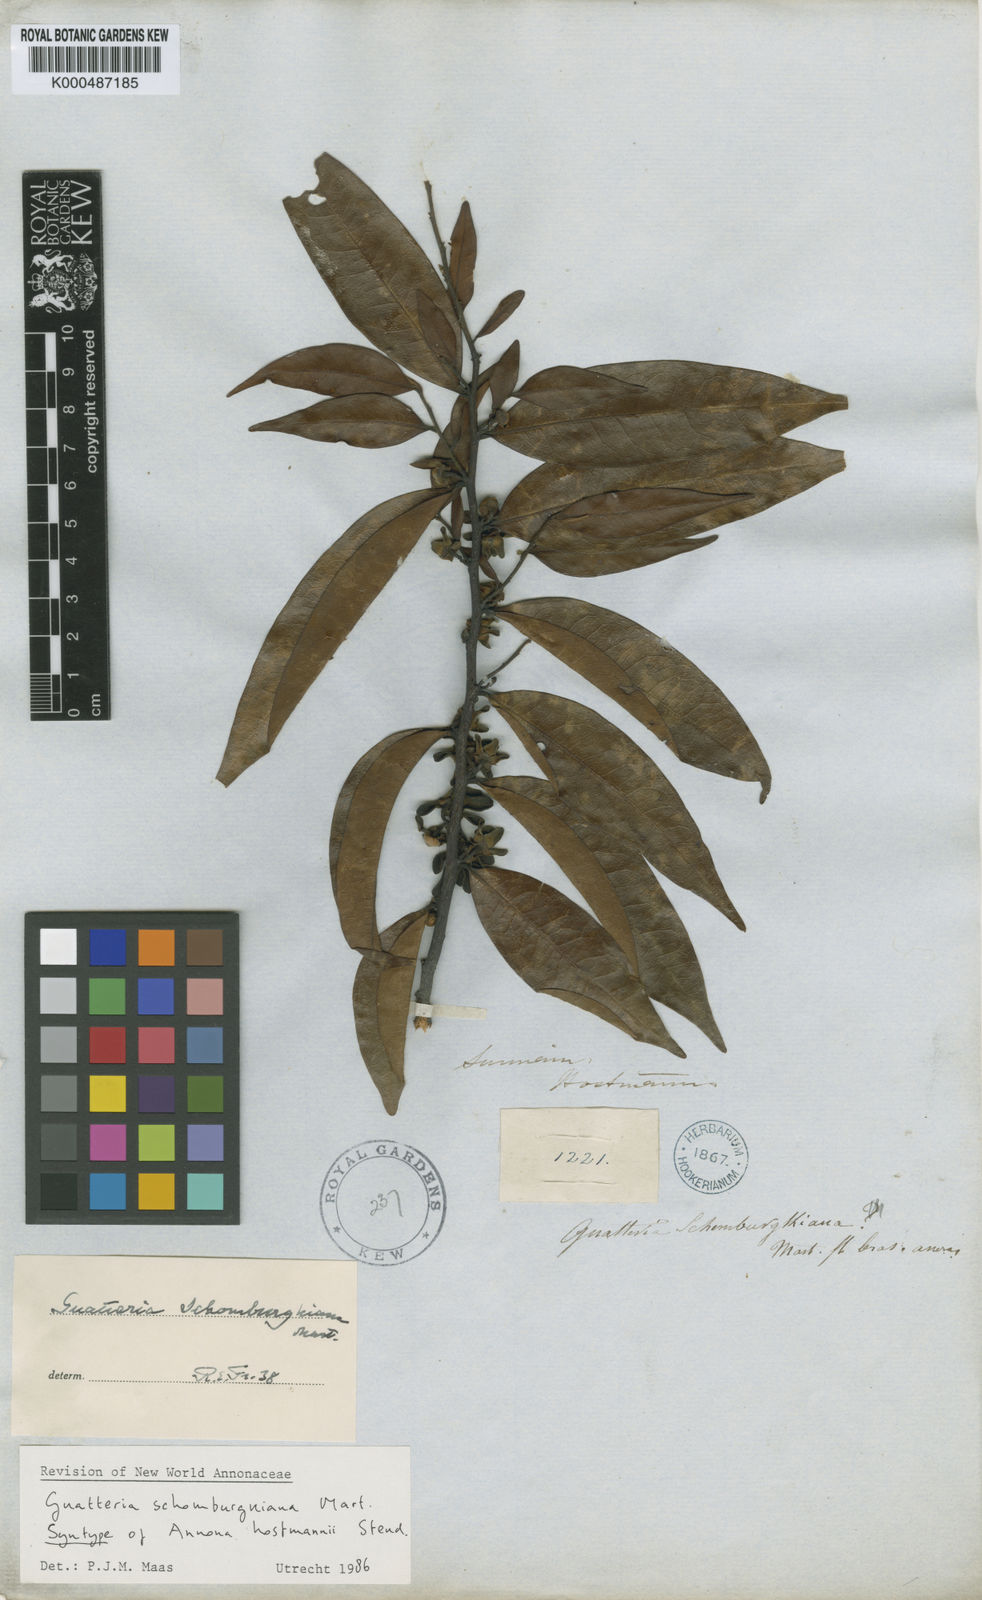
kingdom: Plantae
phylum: Tracheophyta
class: Magnoliopsida
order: Magnoliales
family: Annonaceae
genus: Guatteria
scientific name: Guatteria schomburgkiana
